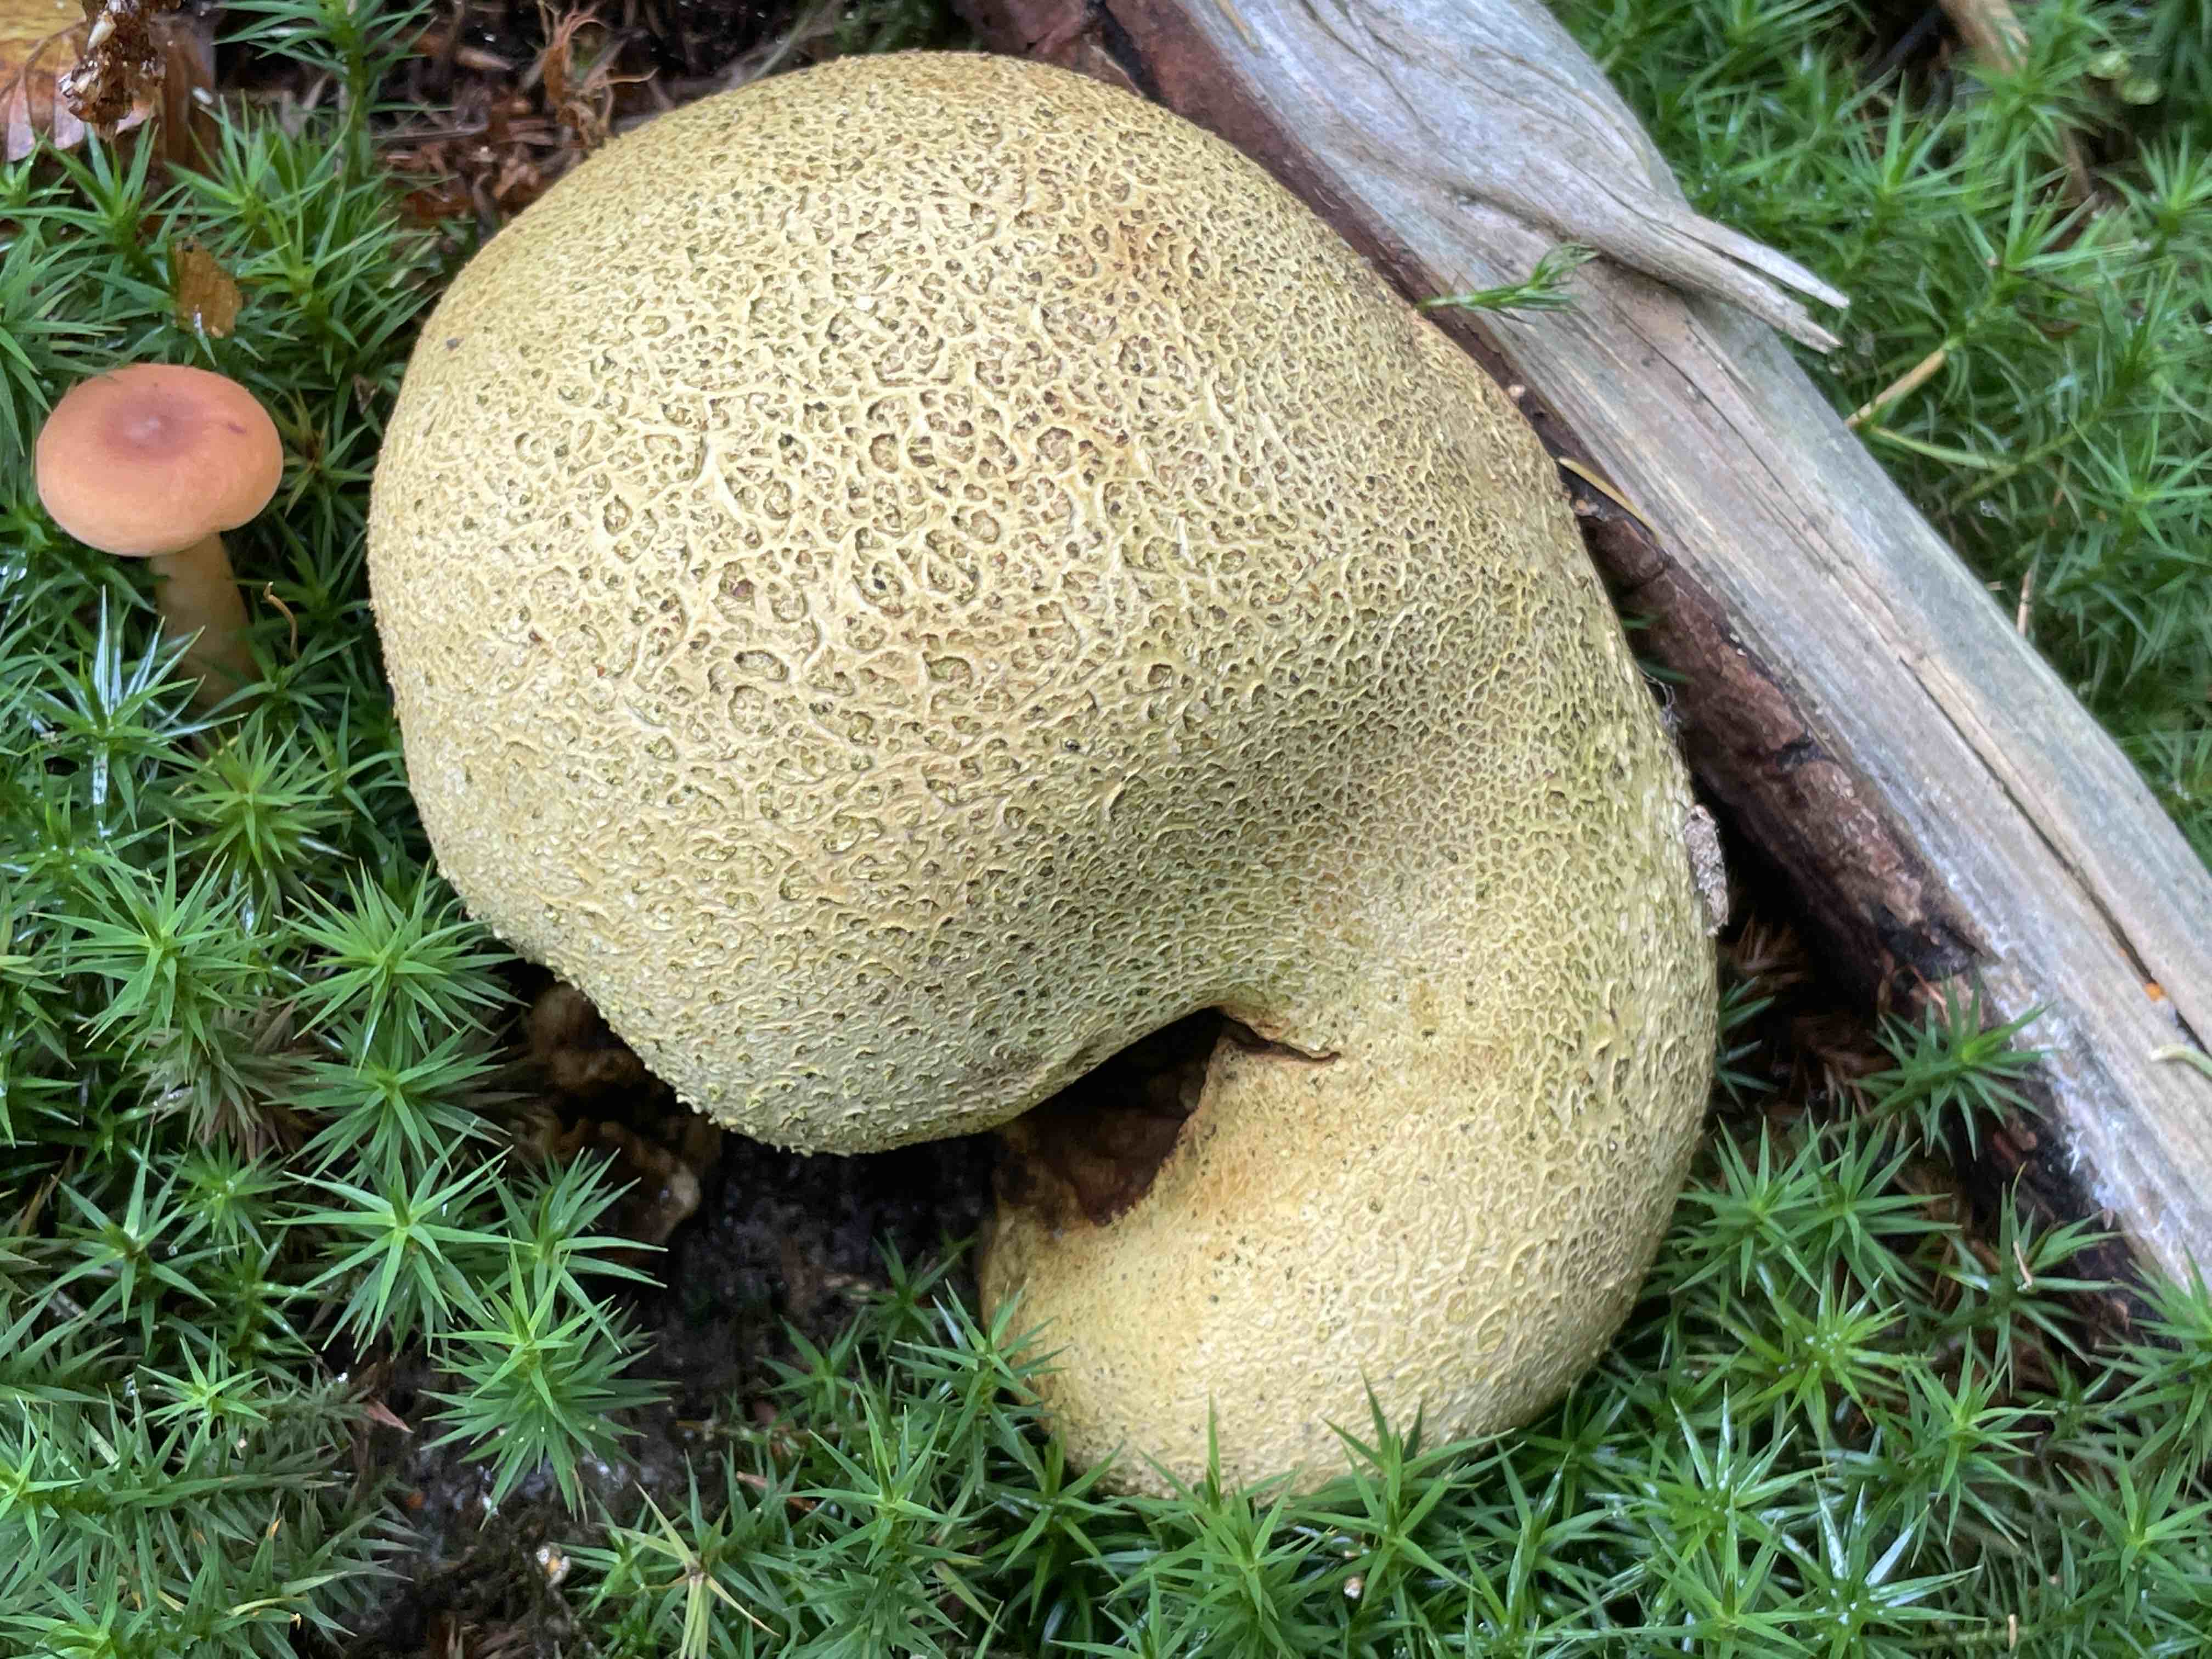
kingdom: Fungi
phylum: Basidiomycota
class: Agaricomycetes
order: Boletales
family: Sclerodermataceae
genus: Scleroderma
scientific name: Scleroderma citrinum
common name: almindelig bruskbold
